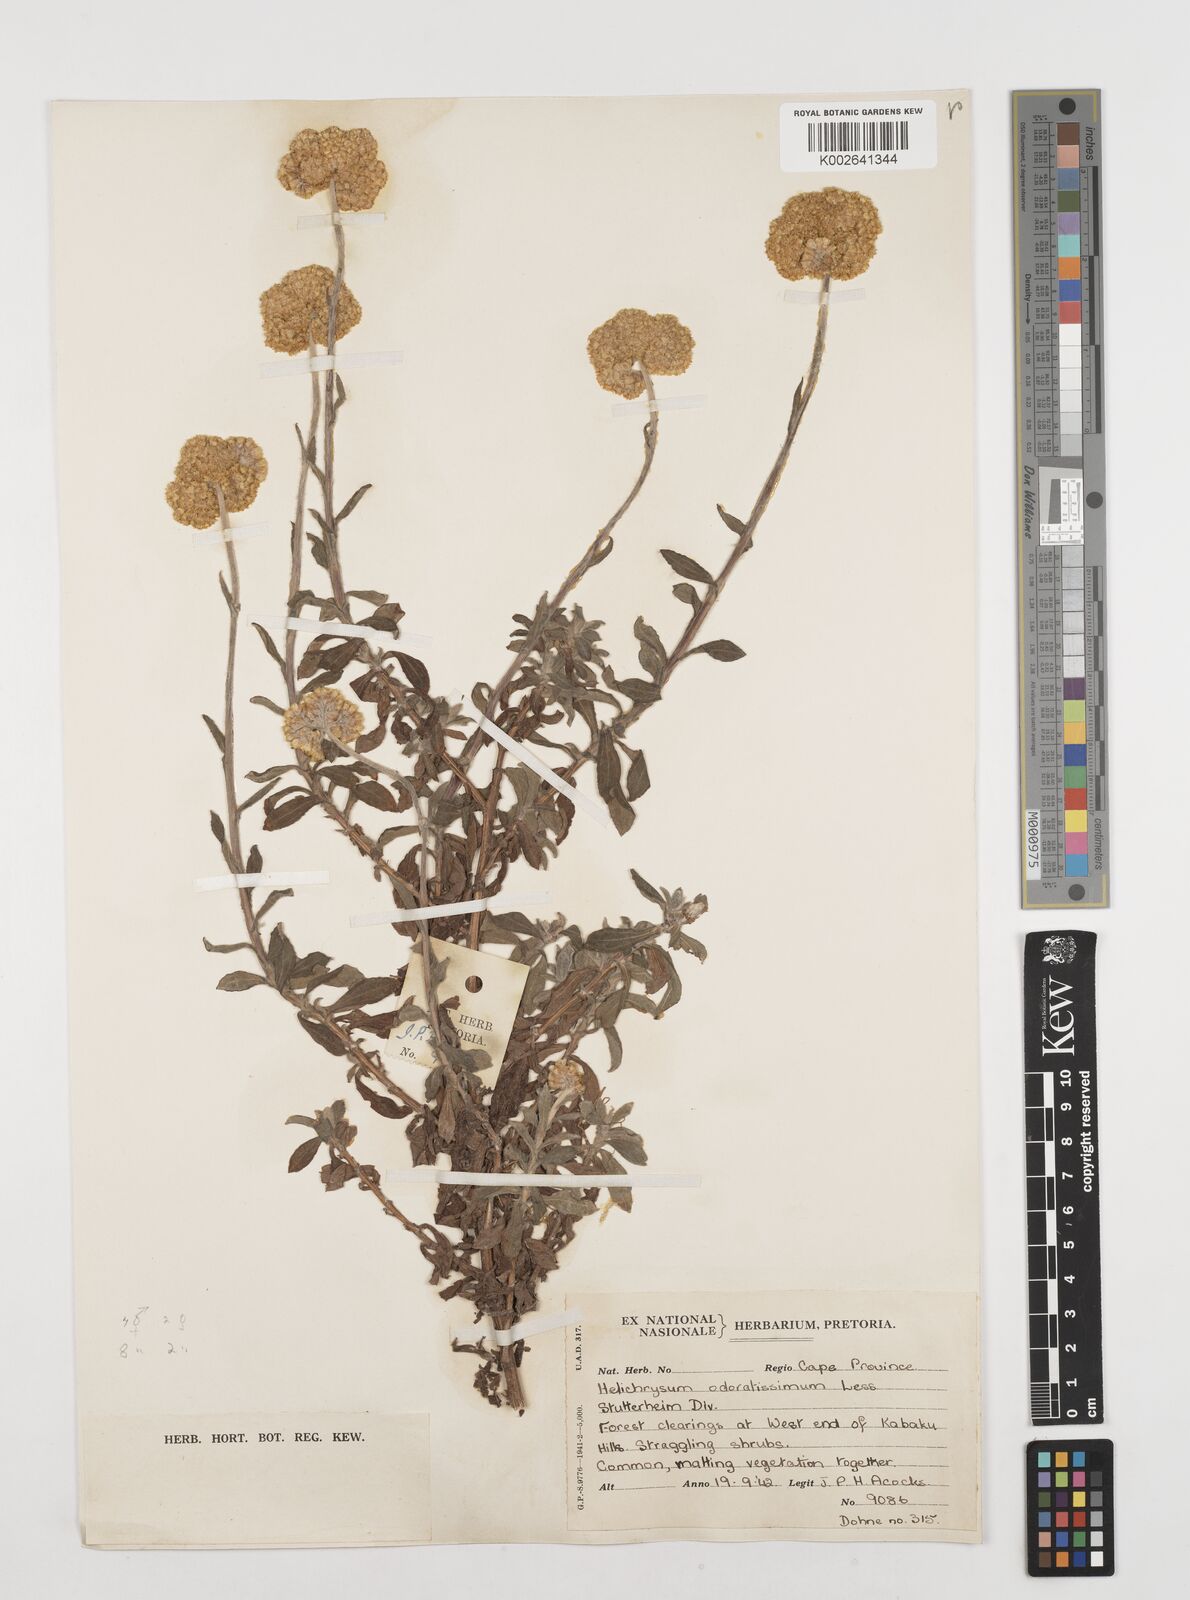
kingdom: Plantae
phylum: Tracheophyta
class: Magnoliopsida
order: Asterales
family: Asteraceae
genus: Helichrysum
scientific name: Helichrysum odoratissimum
